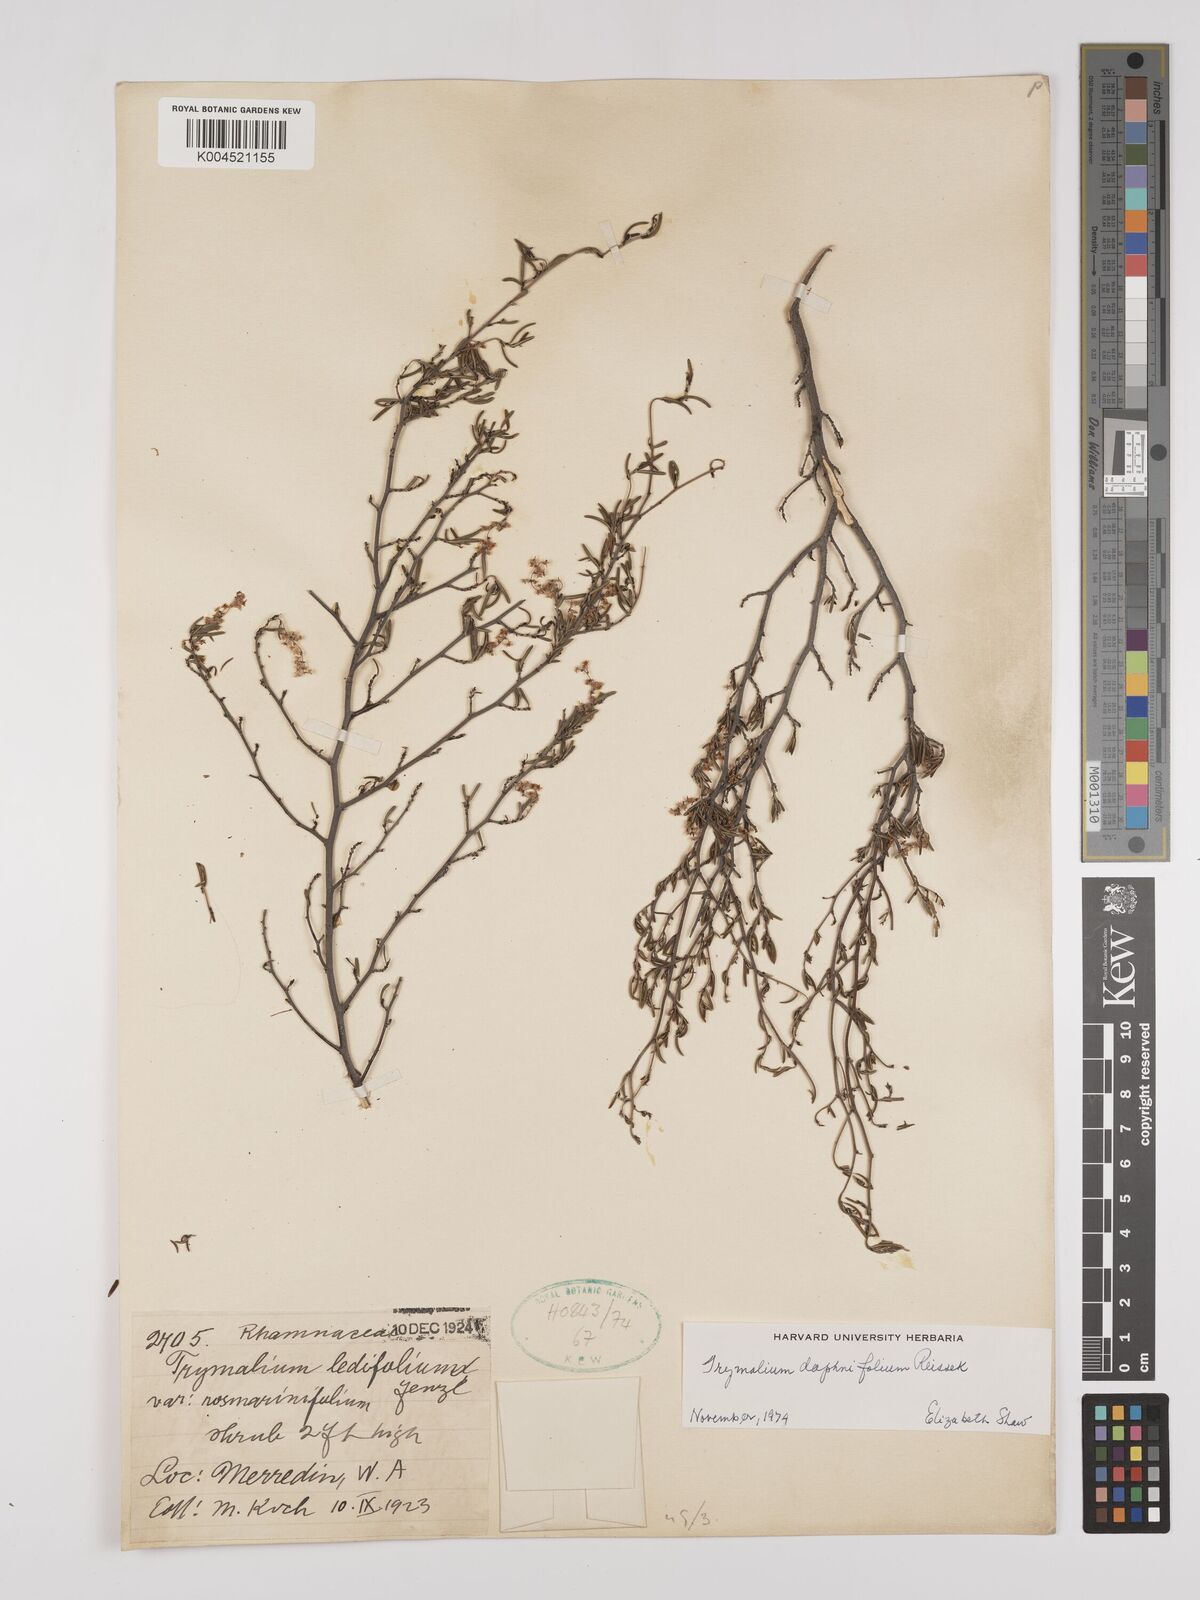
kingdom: Plantae
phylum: Tracheophyta
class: Magnoliopsida
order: Rosales
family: Rhamnaceae
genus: Trymalium
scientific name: Trymalium daphnifolium
